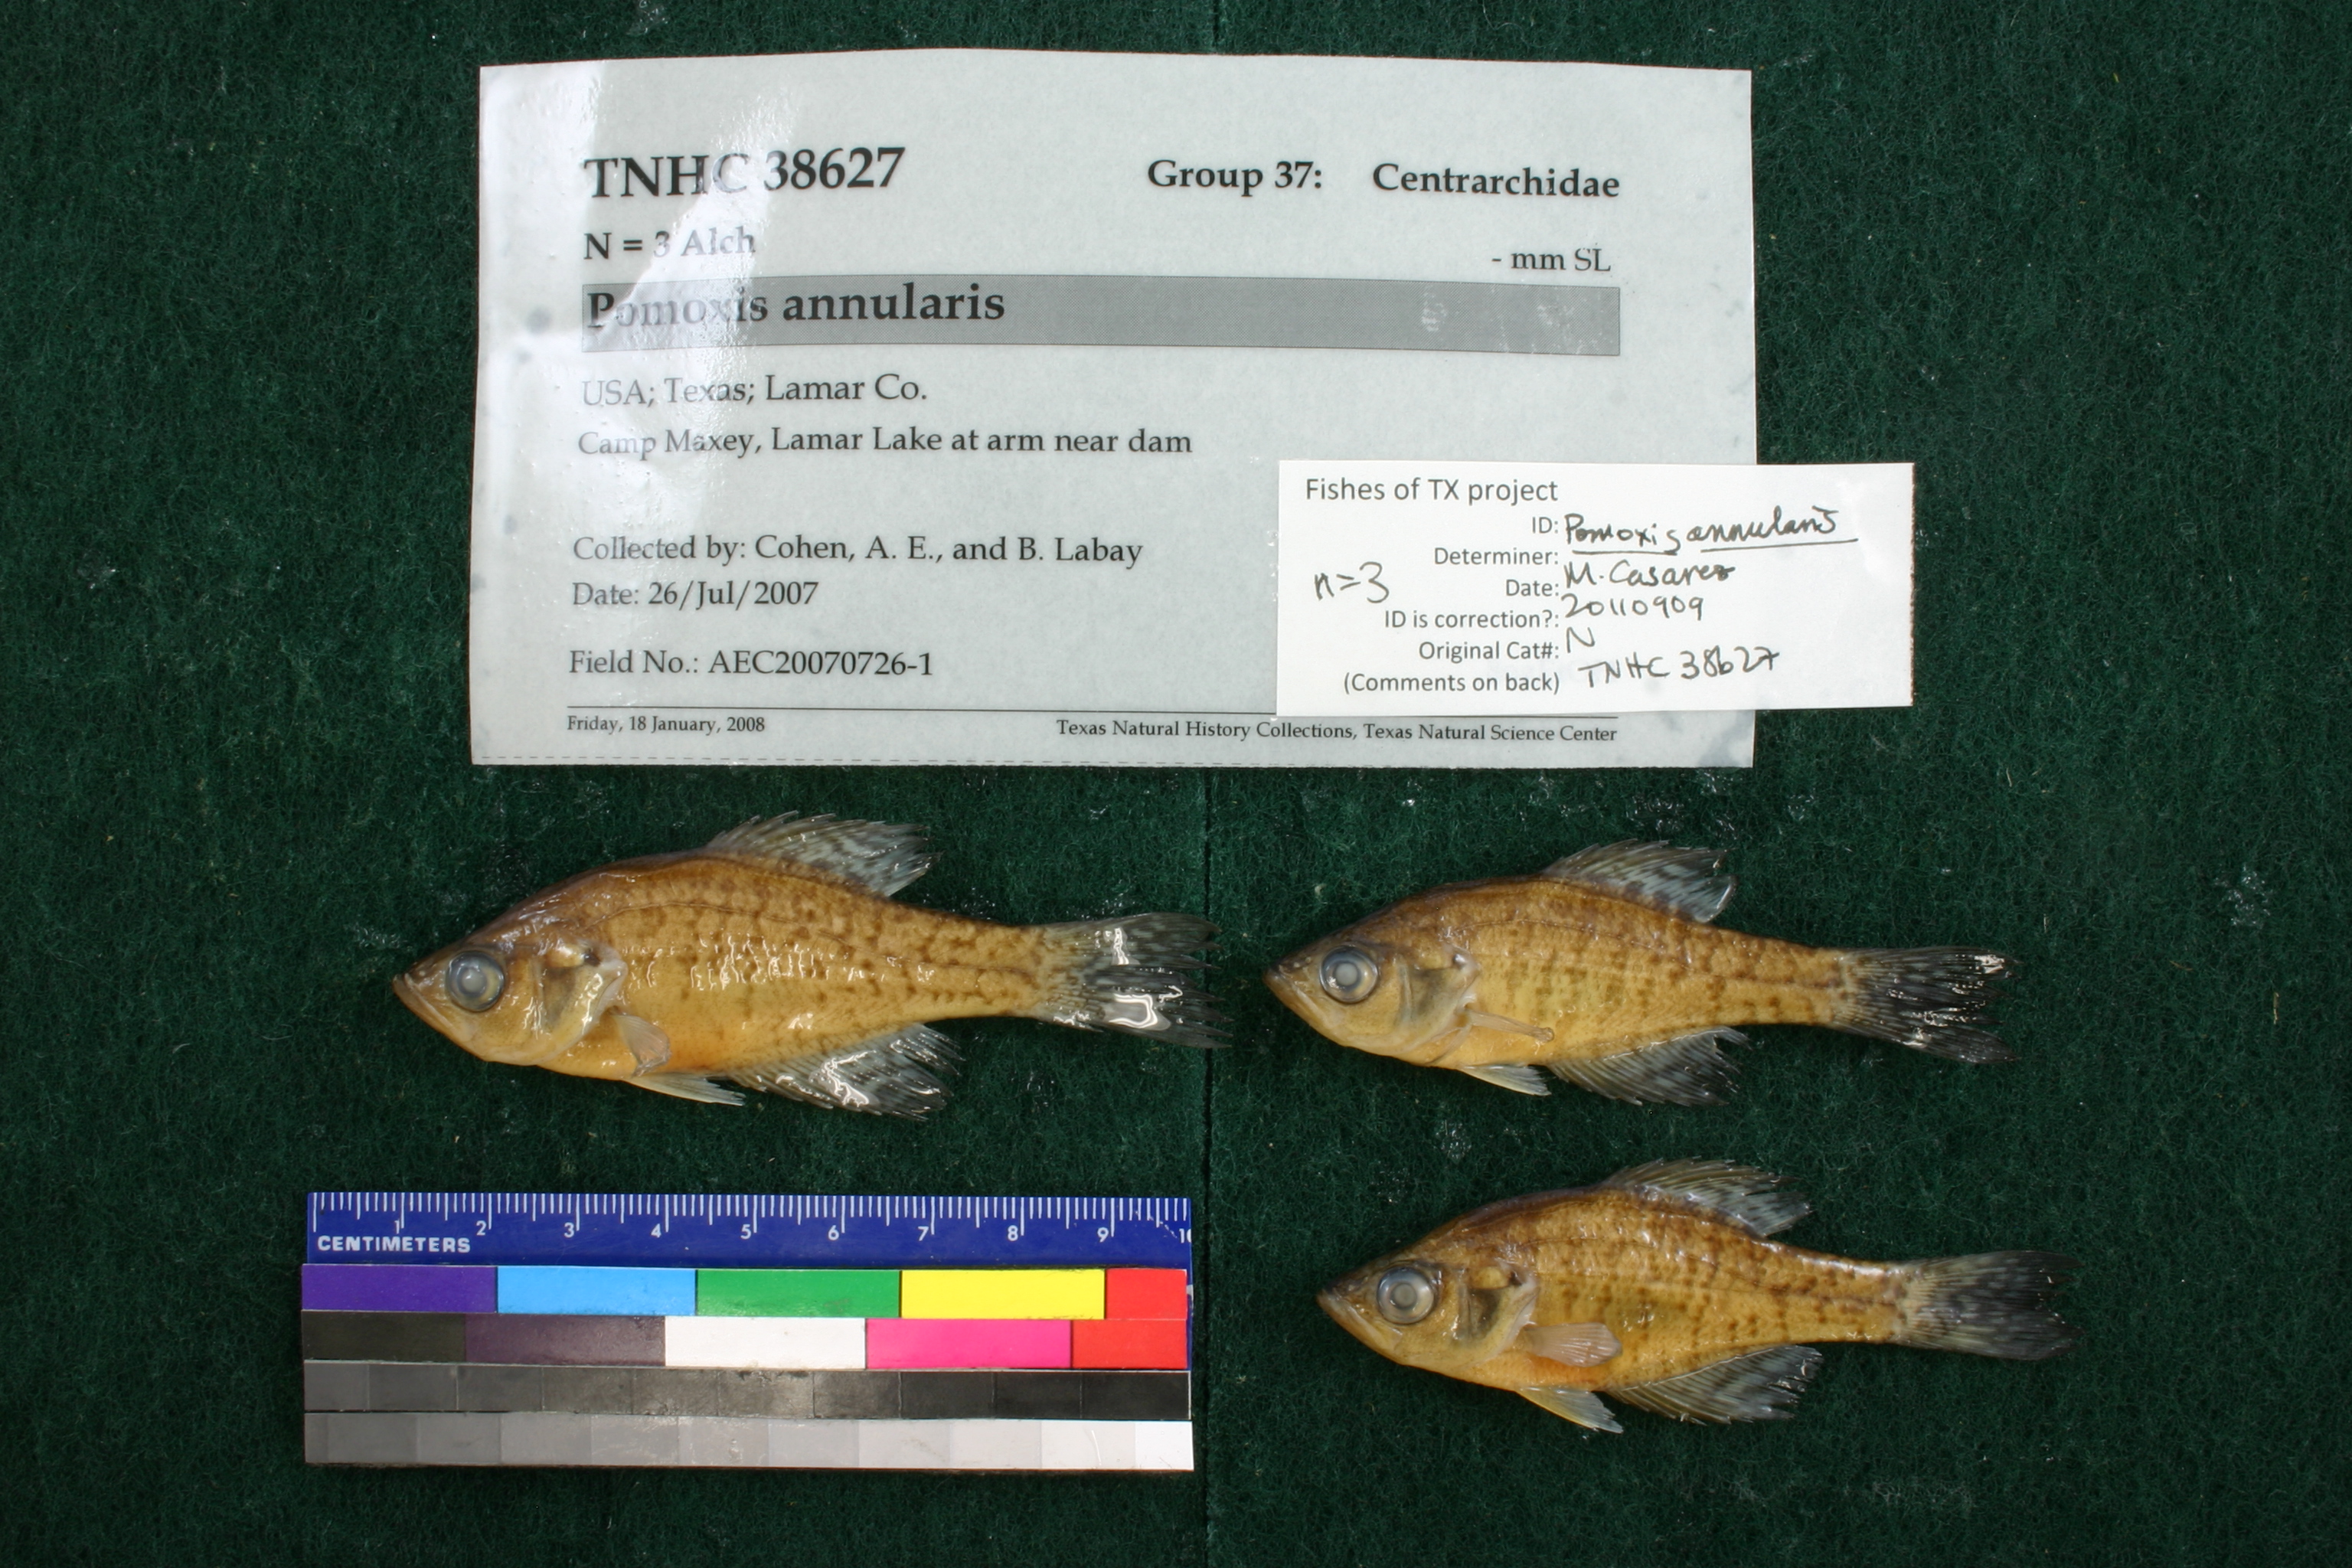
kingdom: Animalia
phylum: Chordata
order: Perciformes
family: Centrarchidae
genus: Pomoxis
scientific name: Pomoxis annularis
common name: White crappie
